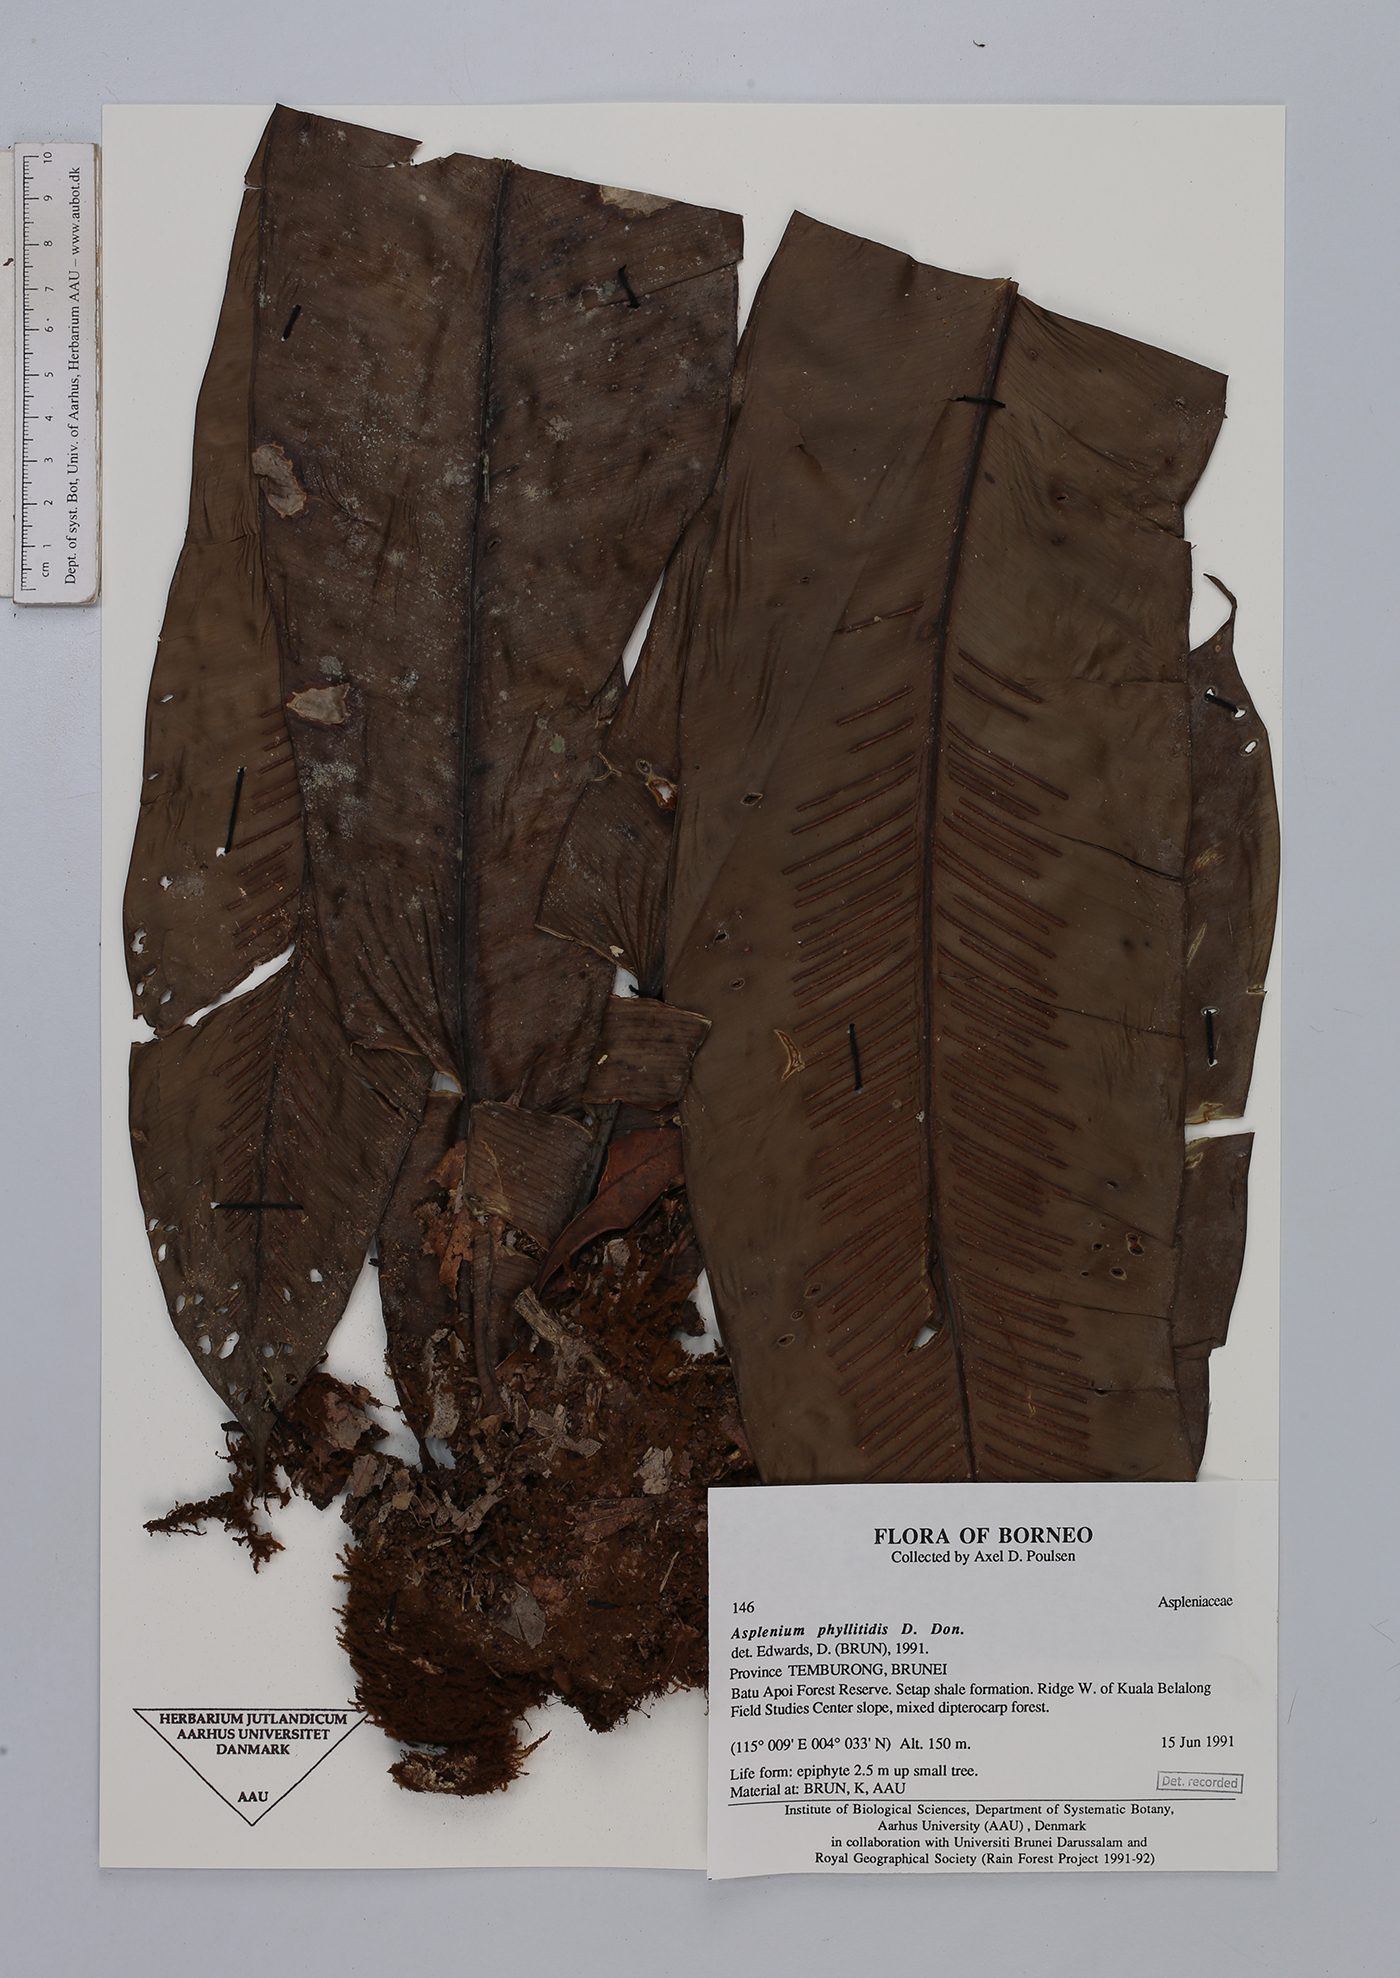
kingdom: Plantae
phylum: Tracheophyta
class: Polypodiopsida
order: Polypodiales
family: Aspleniaceae
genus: Asplenium
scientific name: Asplenium phyllitidis
